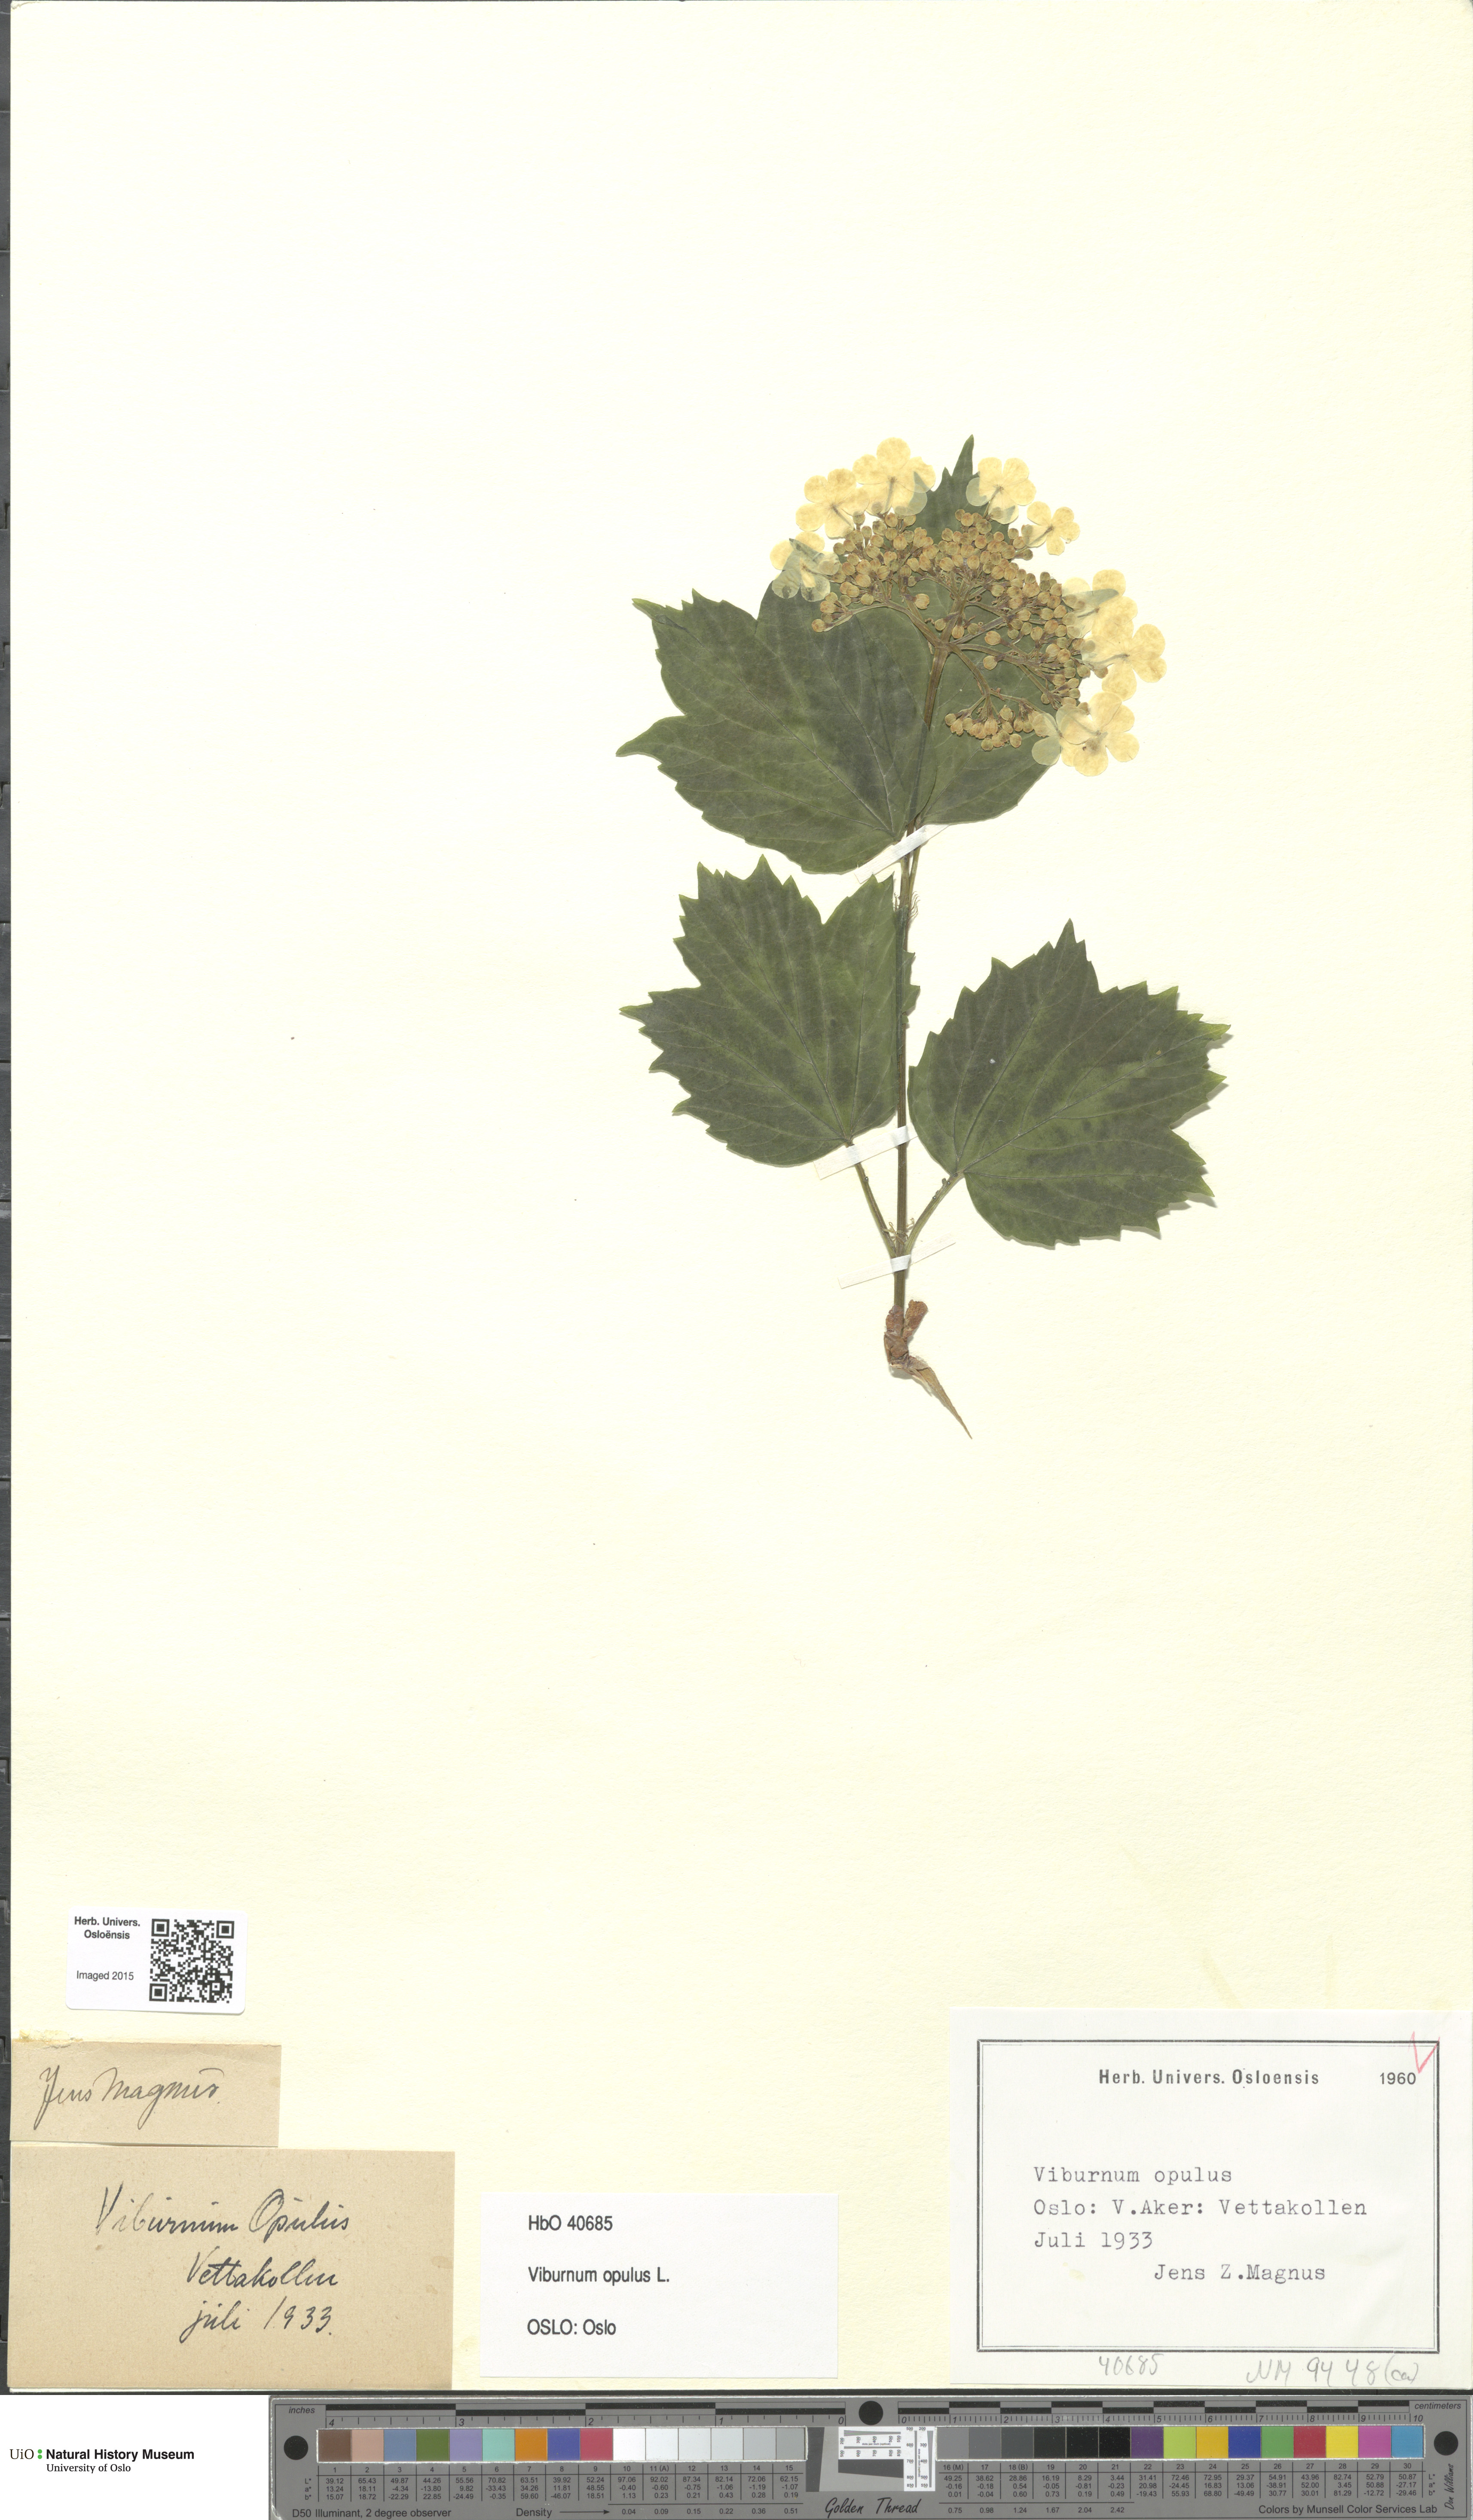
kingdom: Plantae
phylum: Tracheophyta
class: Magnoliopsida
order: Dipsacales
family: Viburnaceae
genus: Viburnum
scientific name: Viburnum opulus
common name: Guelder-rose
